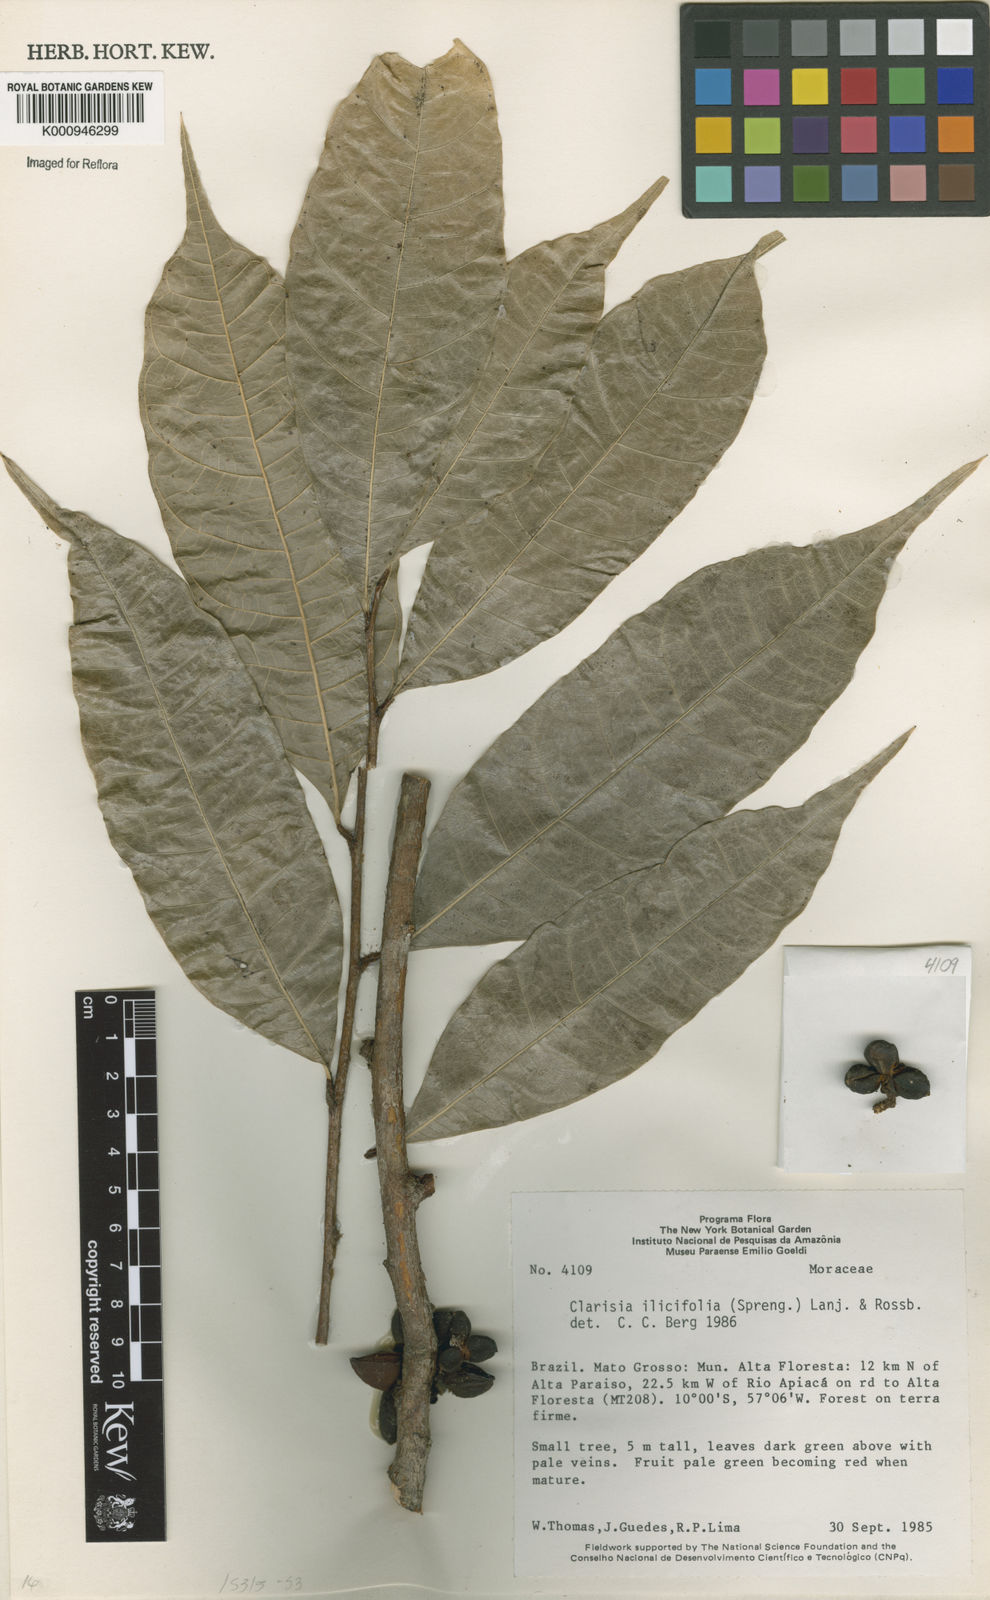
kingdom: Plantae
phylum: Tracheophyta
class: Magnoliopsida
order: Rosales
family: Moraceae
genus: Clarisia
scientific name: Clarisia ilicifolia
